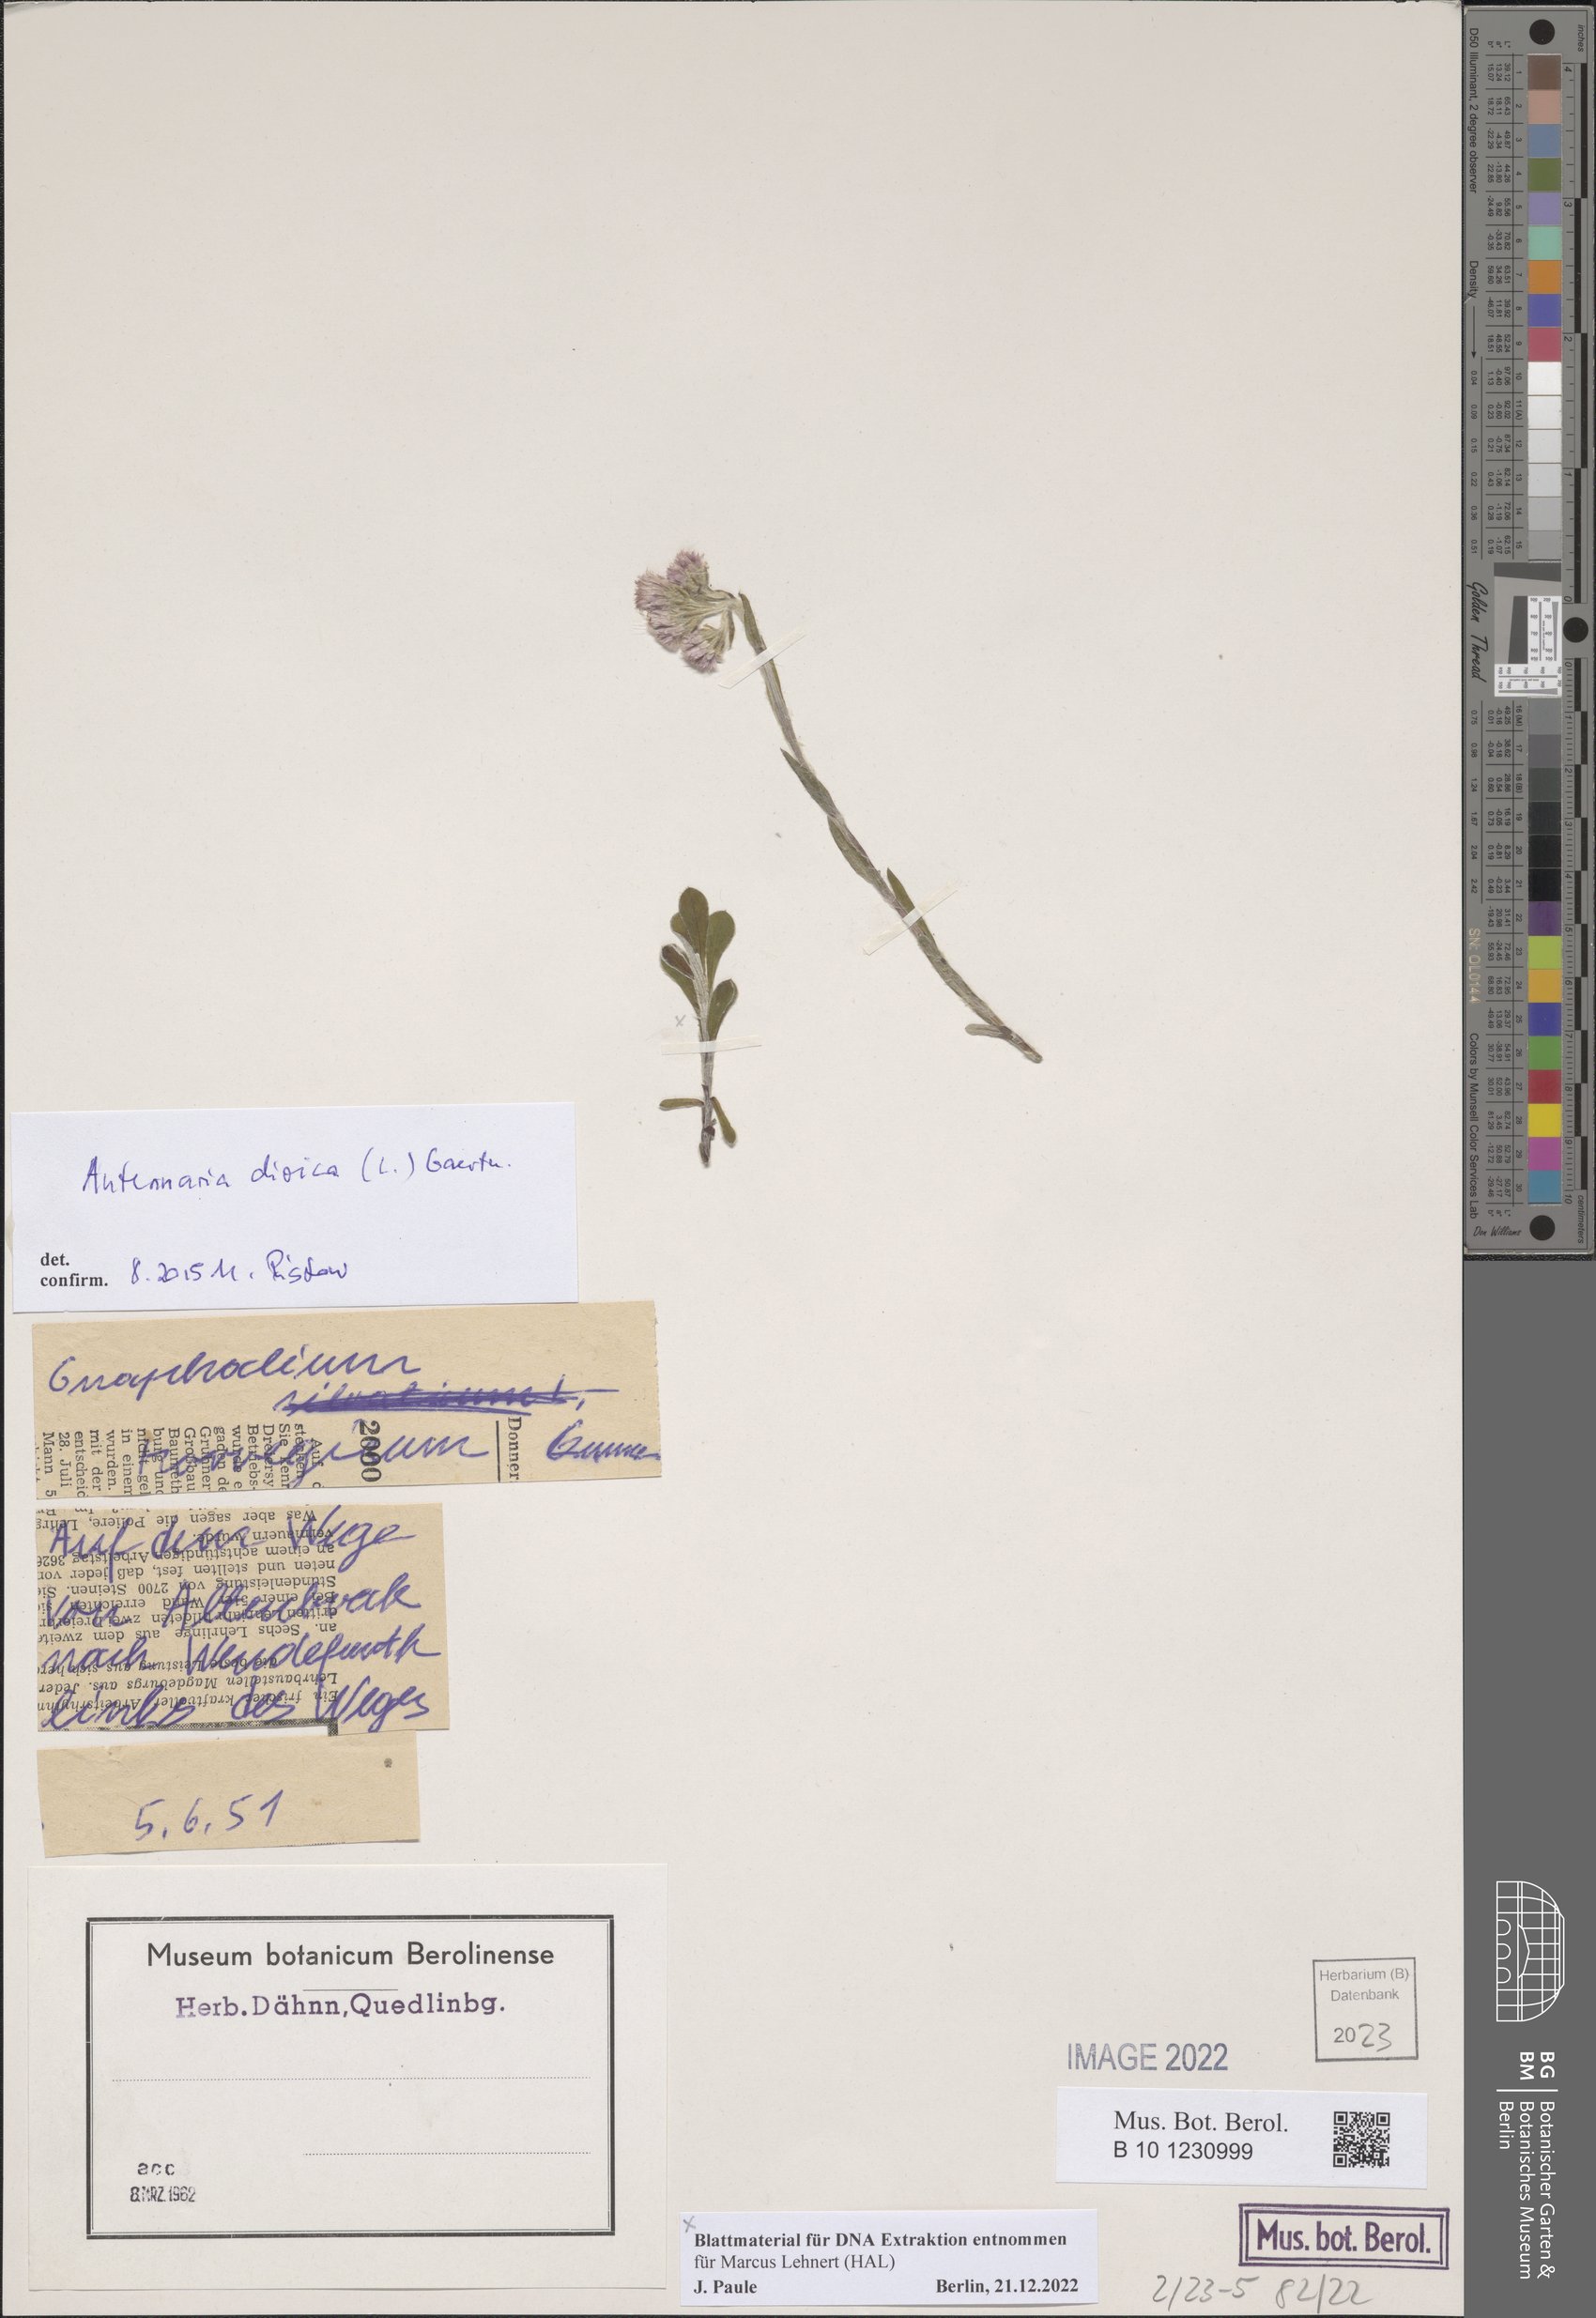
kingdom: Plantae
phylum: Tracheophyta
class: Magnoliopsida
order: Asterales
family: Asteraceae
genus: Antennaria
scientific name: Antennaria dioica
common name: Mountain everlasting
